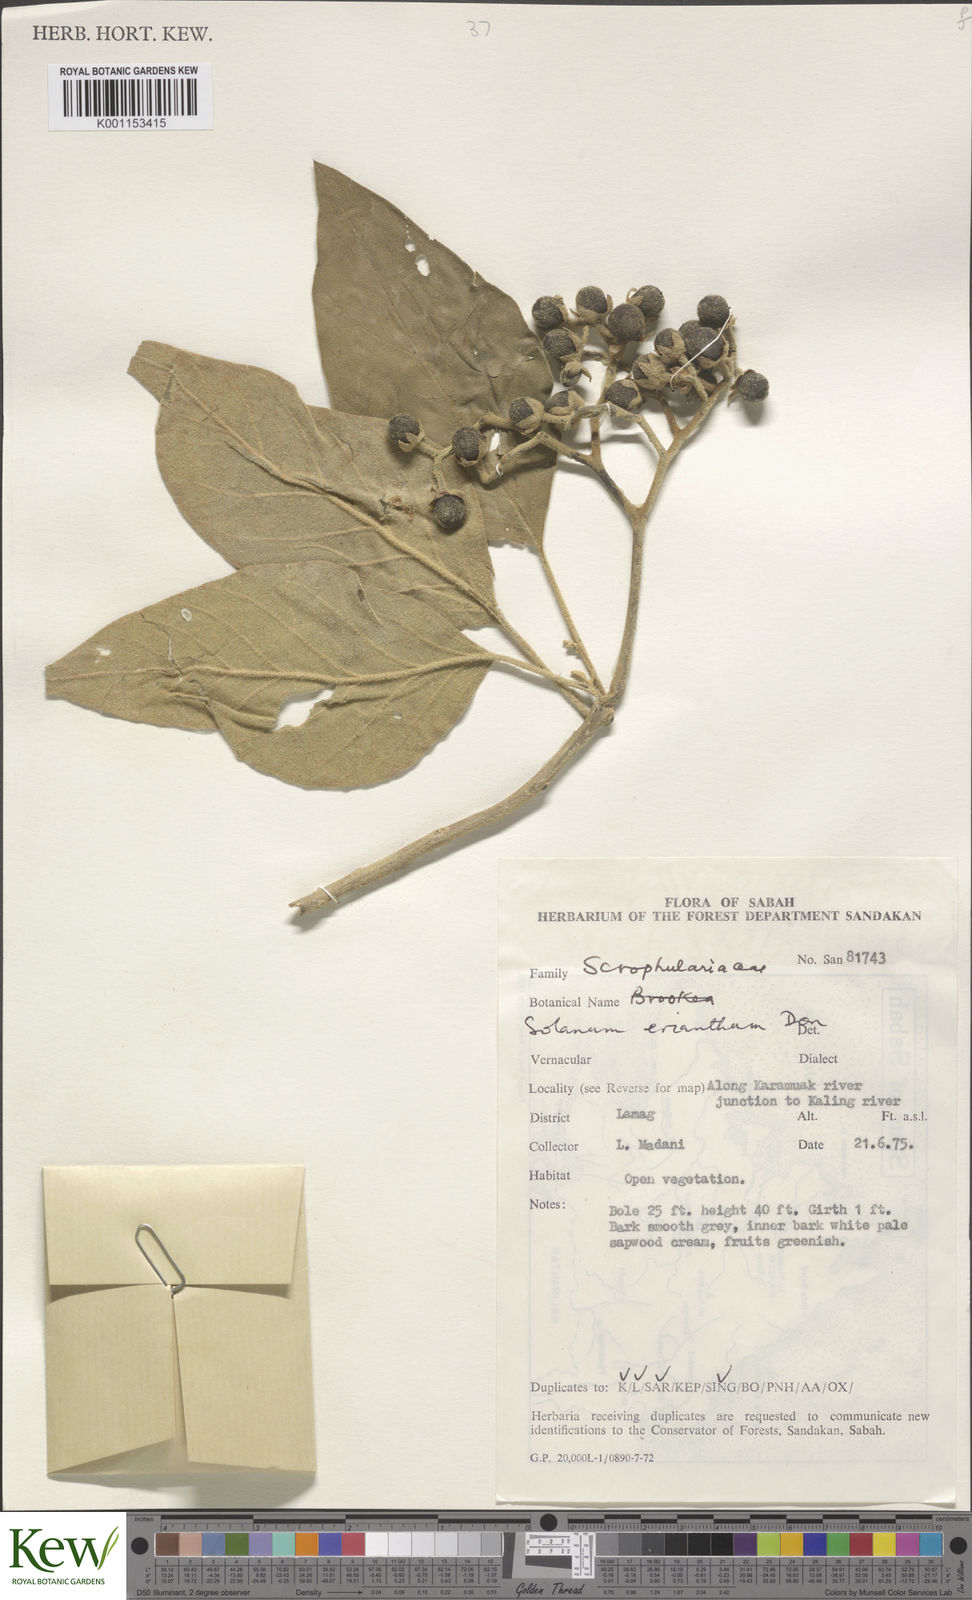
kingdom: Plantae
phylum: Tracheophyta
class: Magnoliopsida
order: Solanales
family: Solanaceae
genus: Solanum
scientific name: Solanum erianthum
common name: Tobacco-tree
